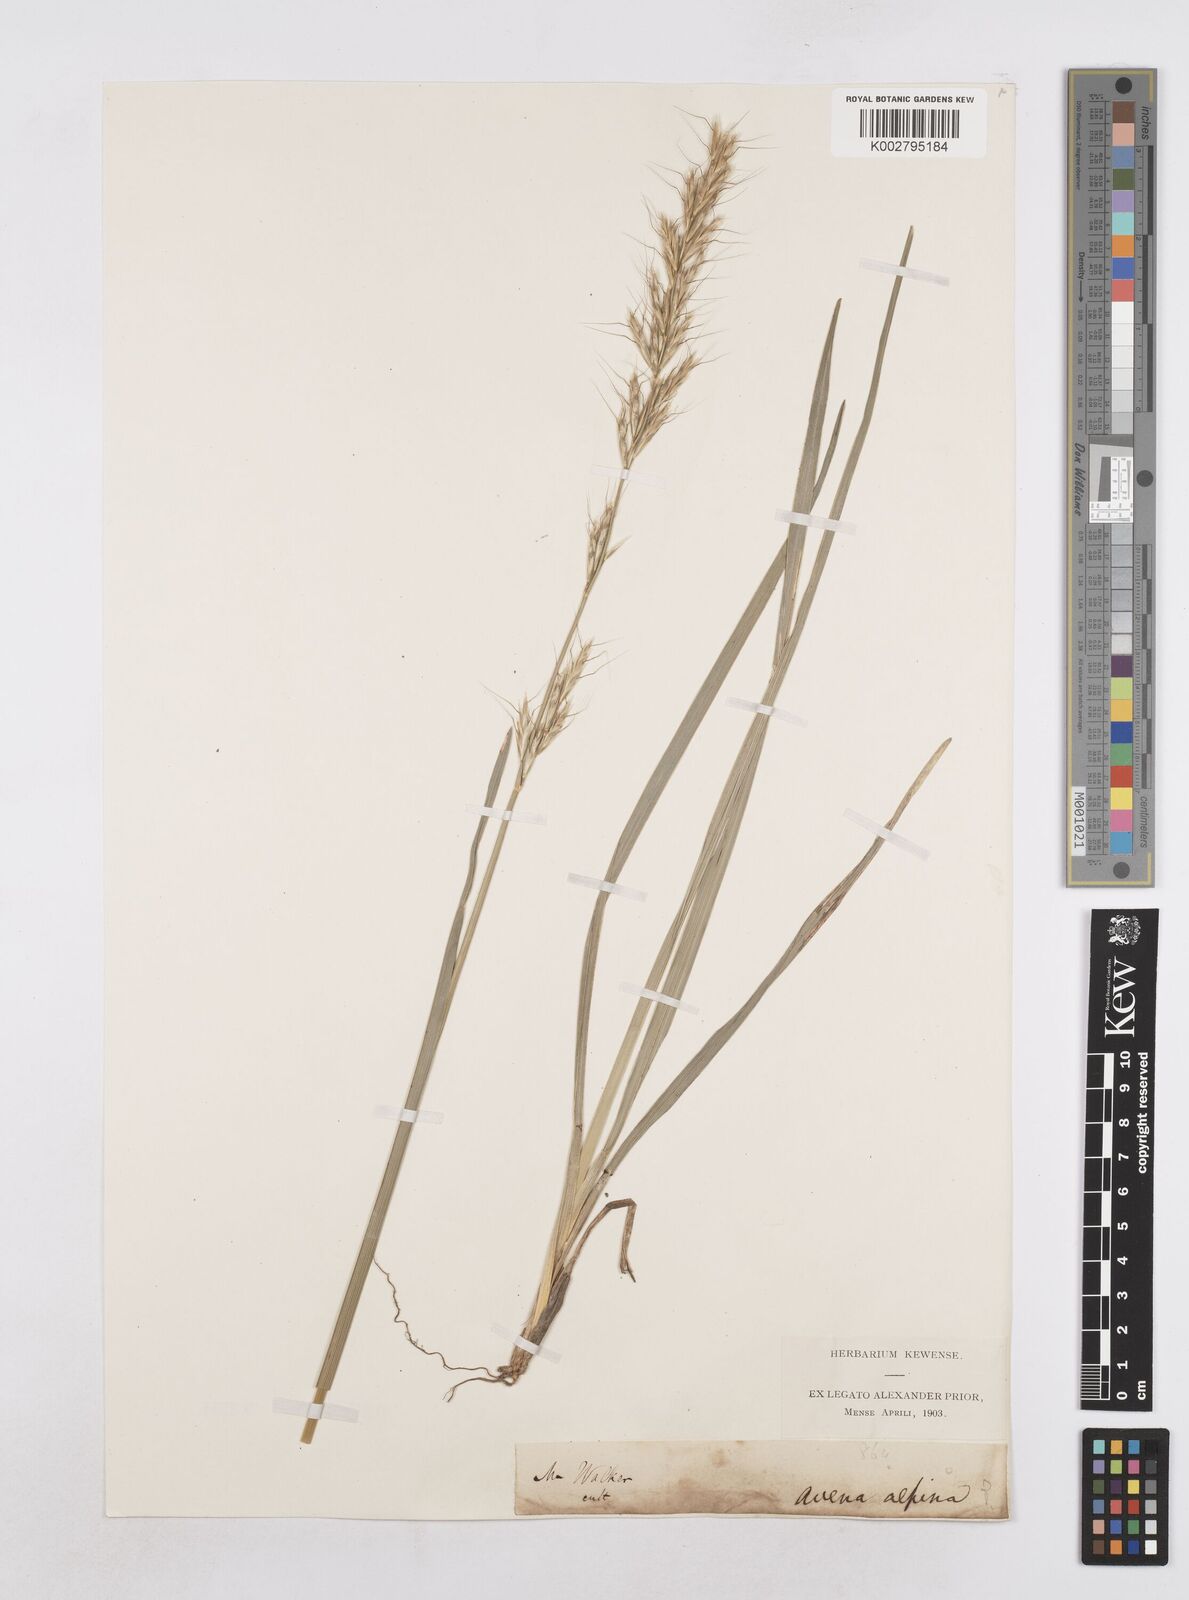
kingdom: Plantae
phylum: Tracheophyta
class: Liliopsida
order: Poales
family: Poaceae
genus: Helictochloa
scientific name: Helictochloa pratensis
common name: Meadow oat grass
